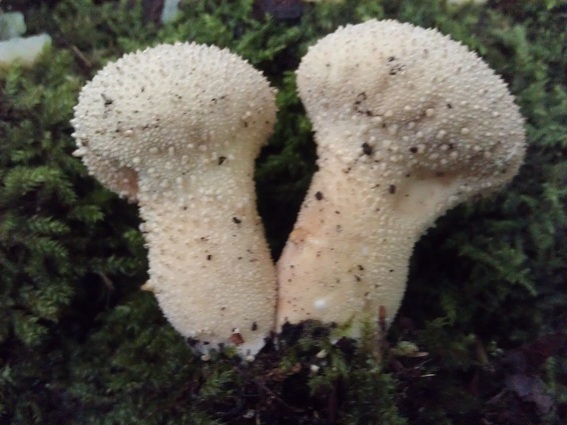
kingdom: Fungi
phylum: Basidiomycota
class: Agaricomycetes
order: Agaricales
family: Lycoperdaceae
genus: Lycoperdon
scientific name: Lycoperdon perlatum
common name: krystal-støvbold
